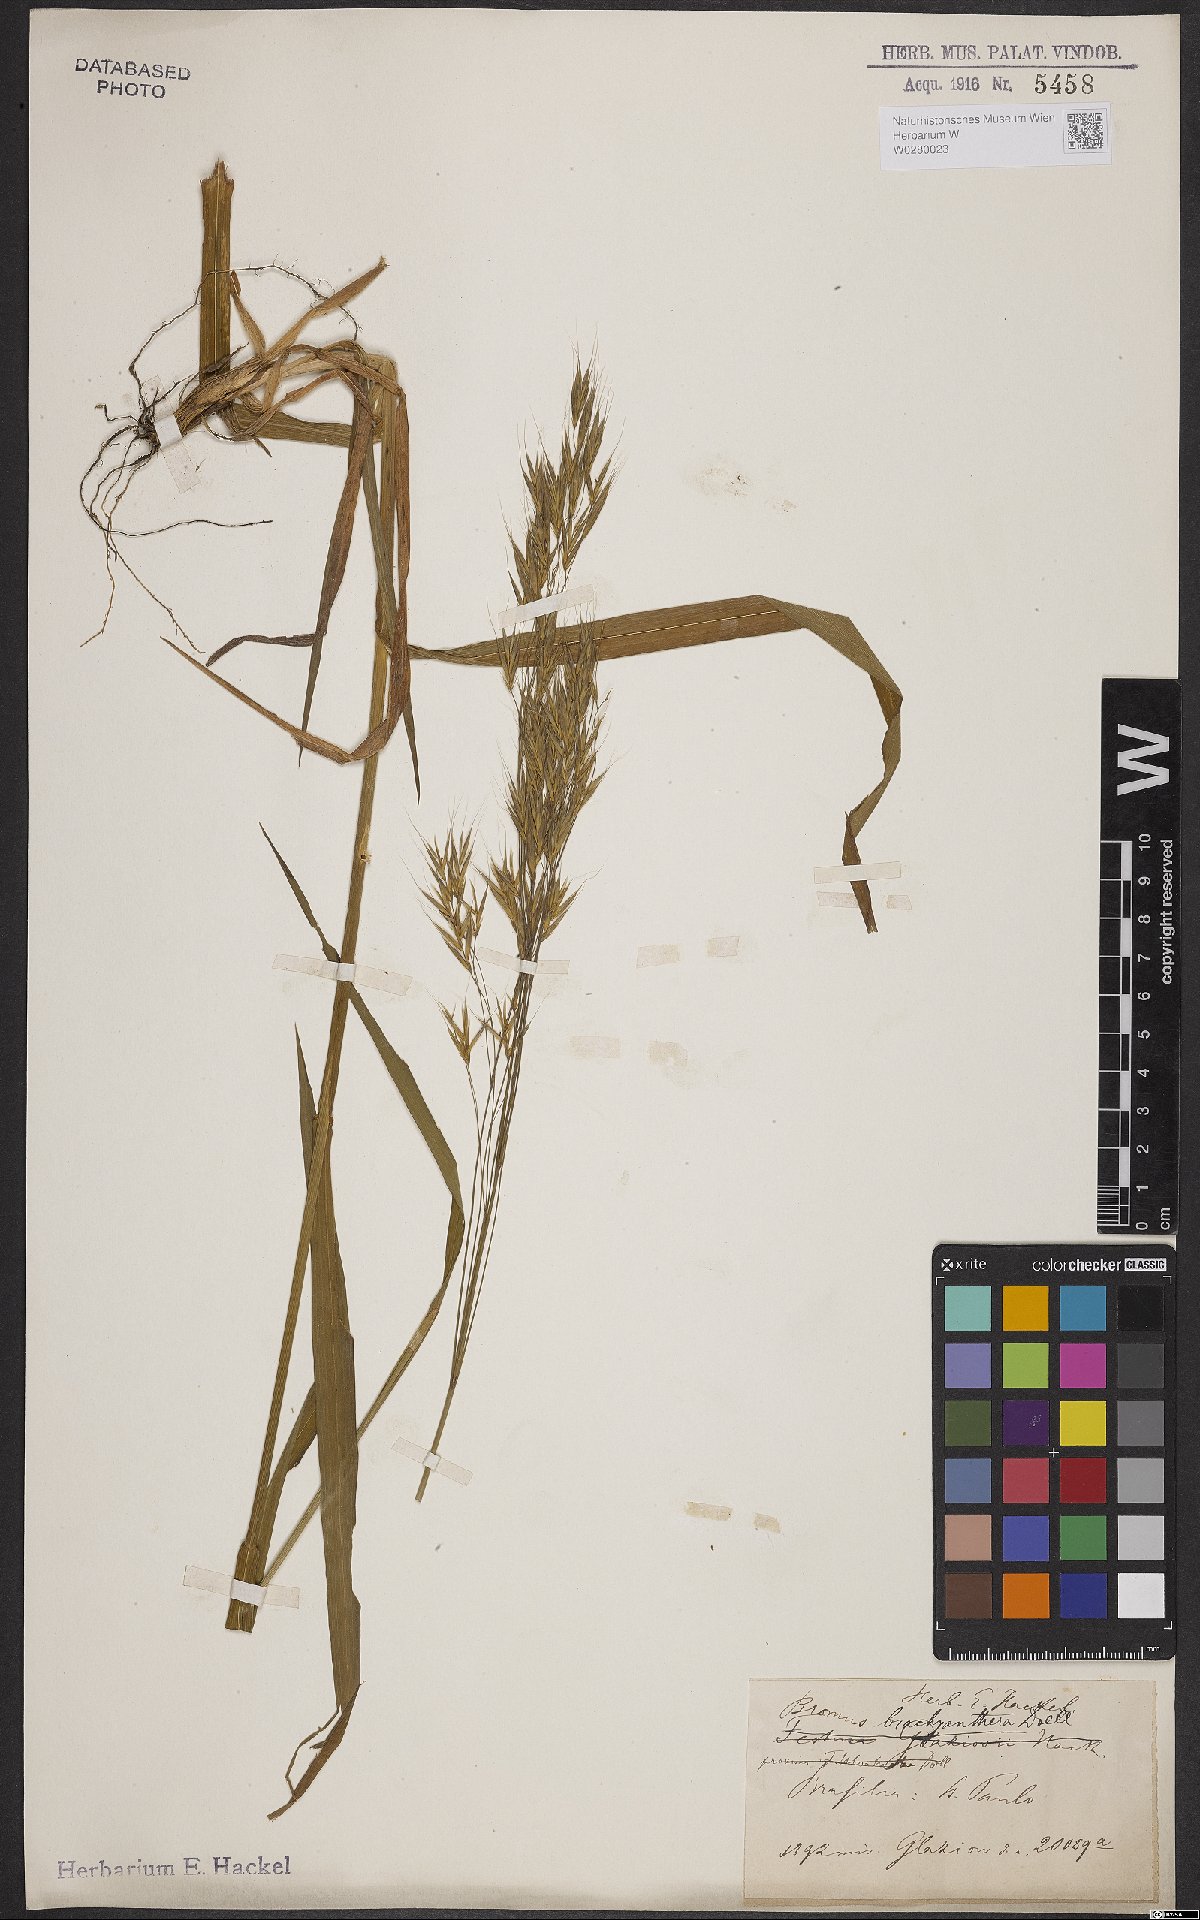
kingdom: Plantae
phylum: Tracheophyta
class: Liliopsida
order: Poales
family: Poaceae
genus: Bromus
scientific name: Bromus brachyantherus
